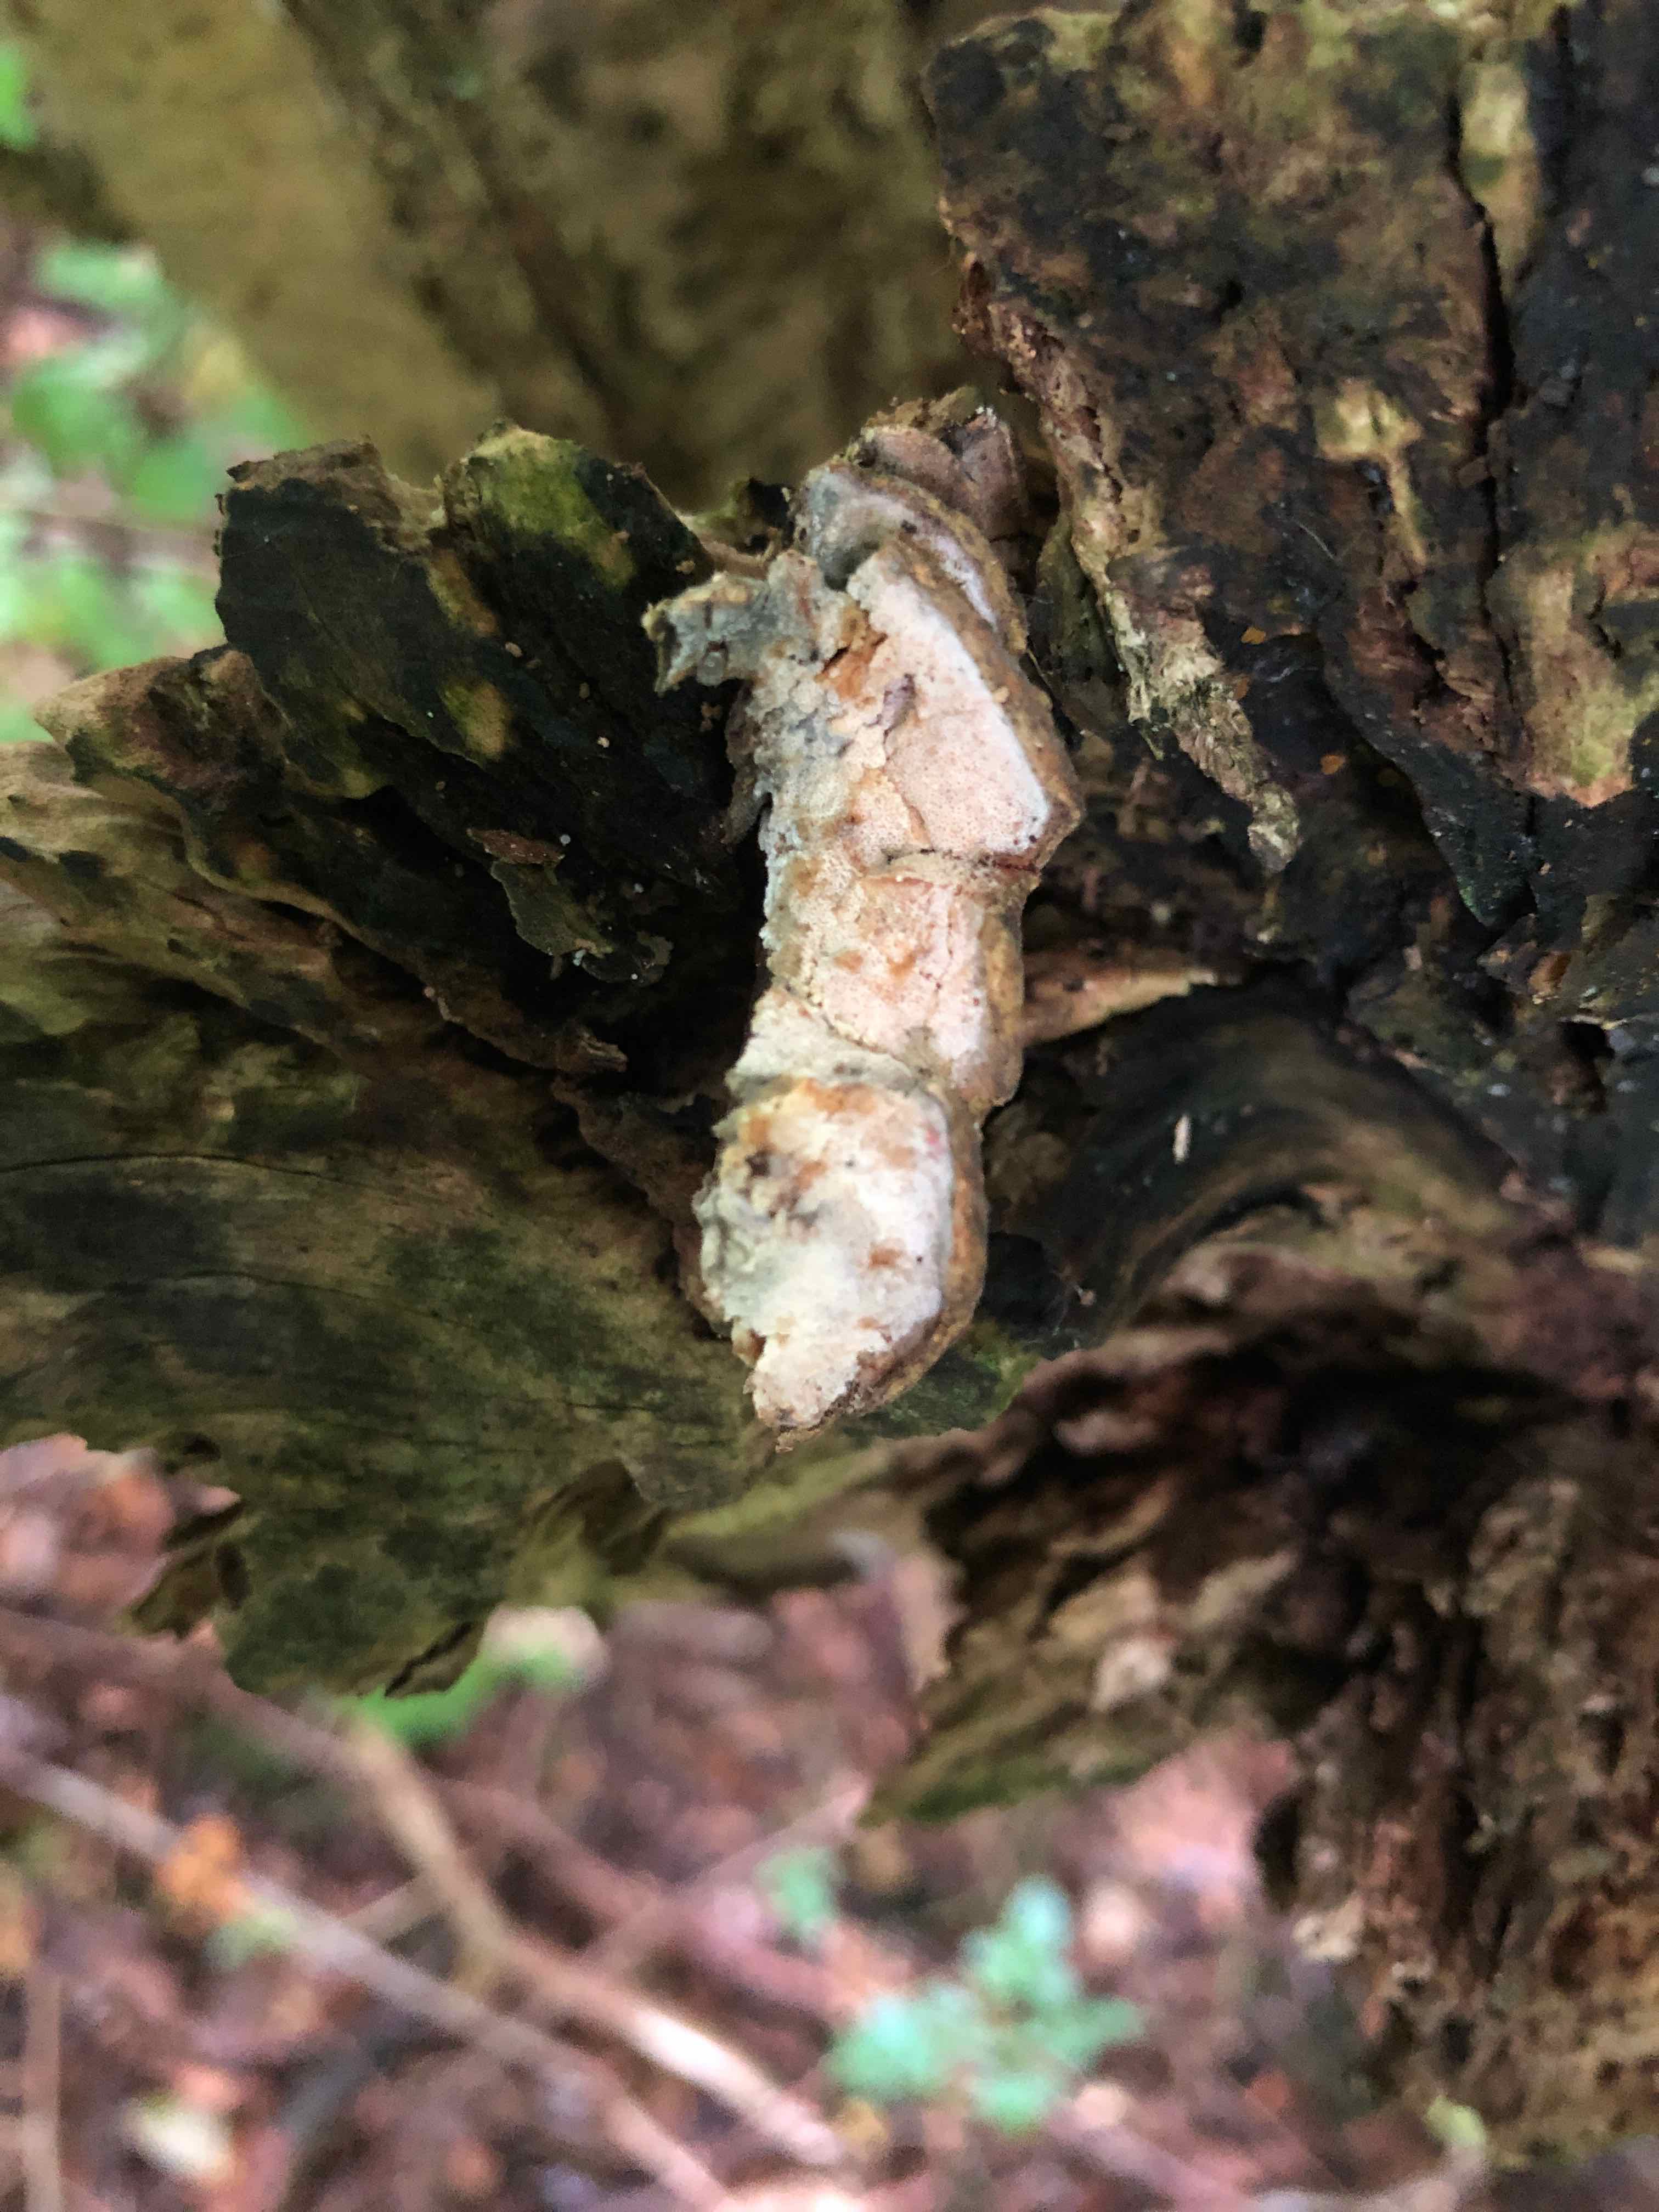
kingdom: Fungi
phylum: Ascomycota
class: Sordariomycetes
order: Hypocreales
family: Hypocreaceae
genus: Protocrea
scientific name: Protocrea farinosa
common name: krystalpore-kødkerne
